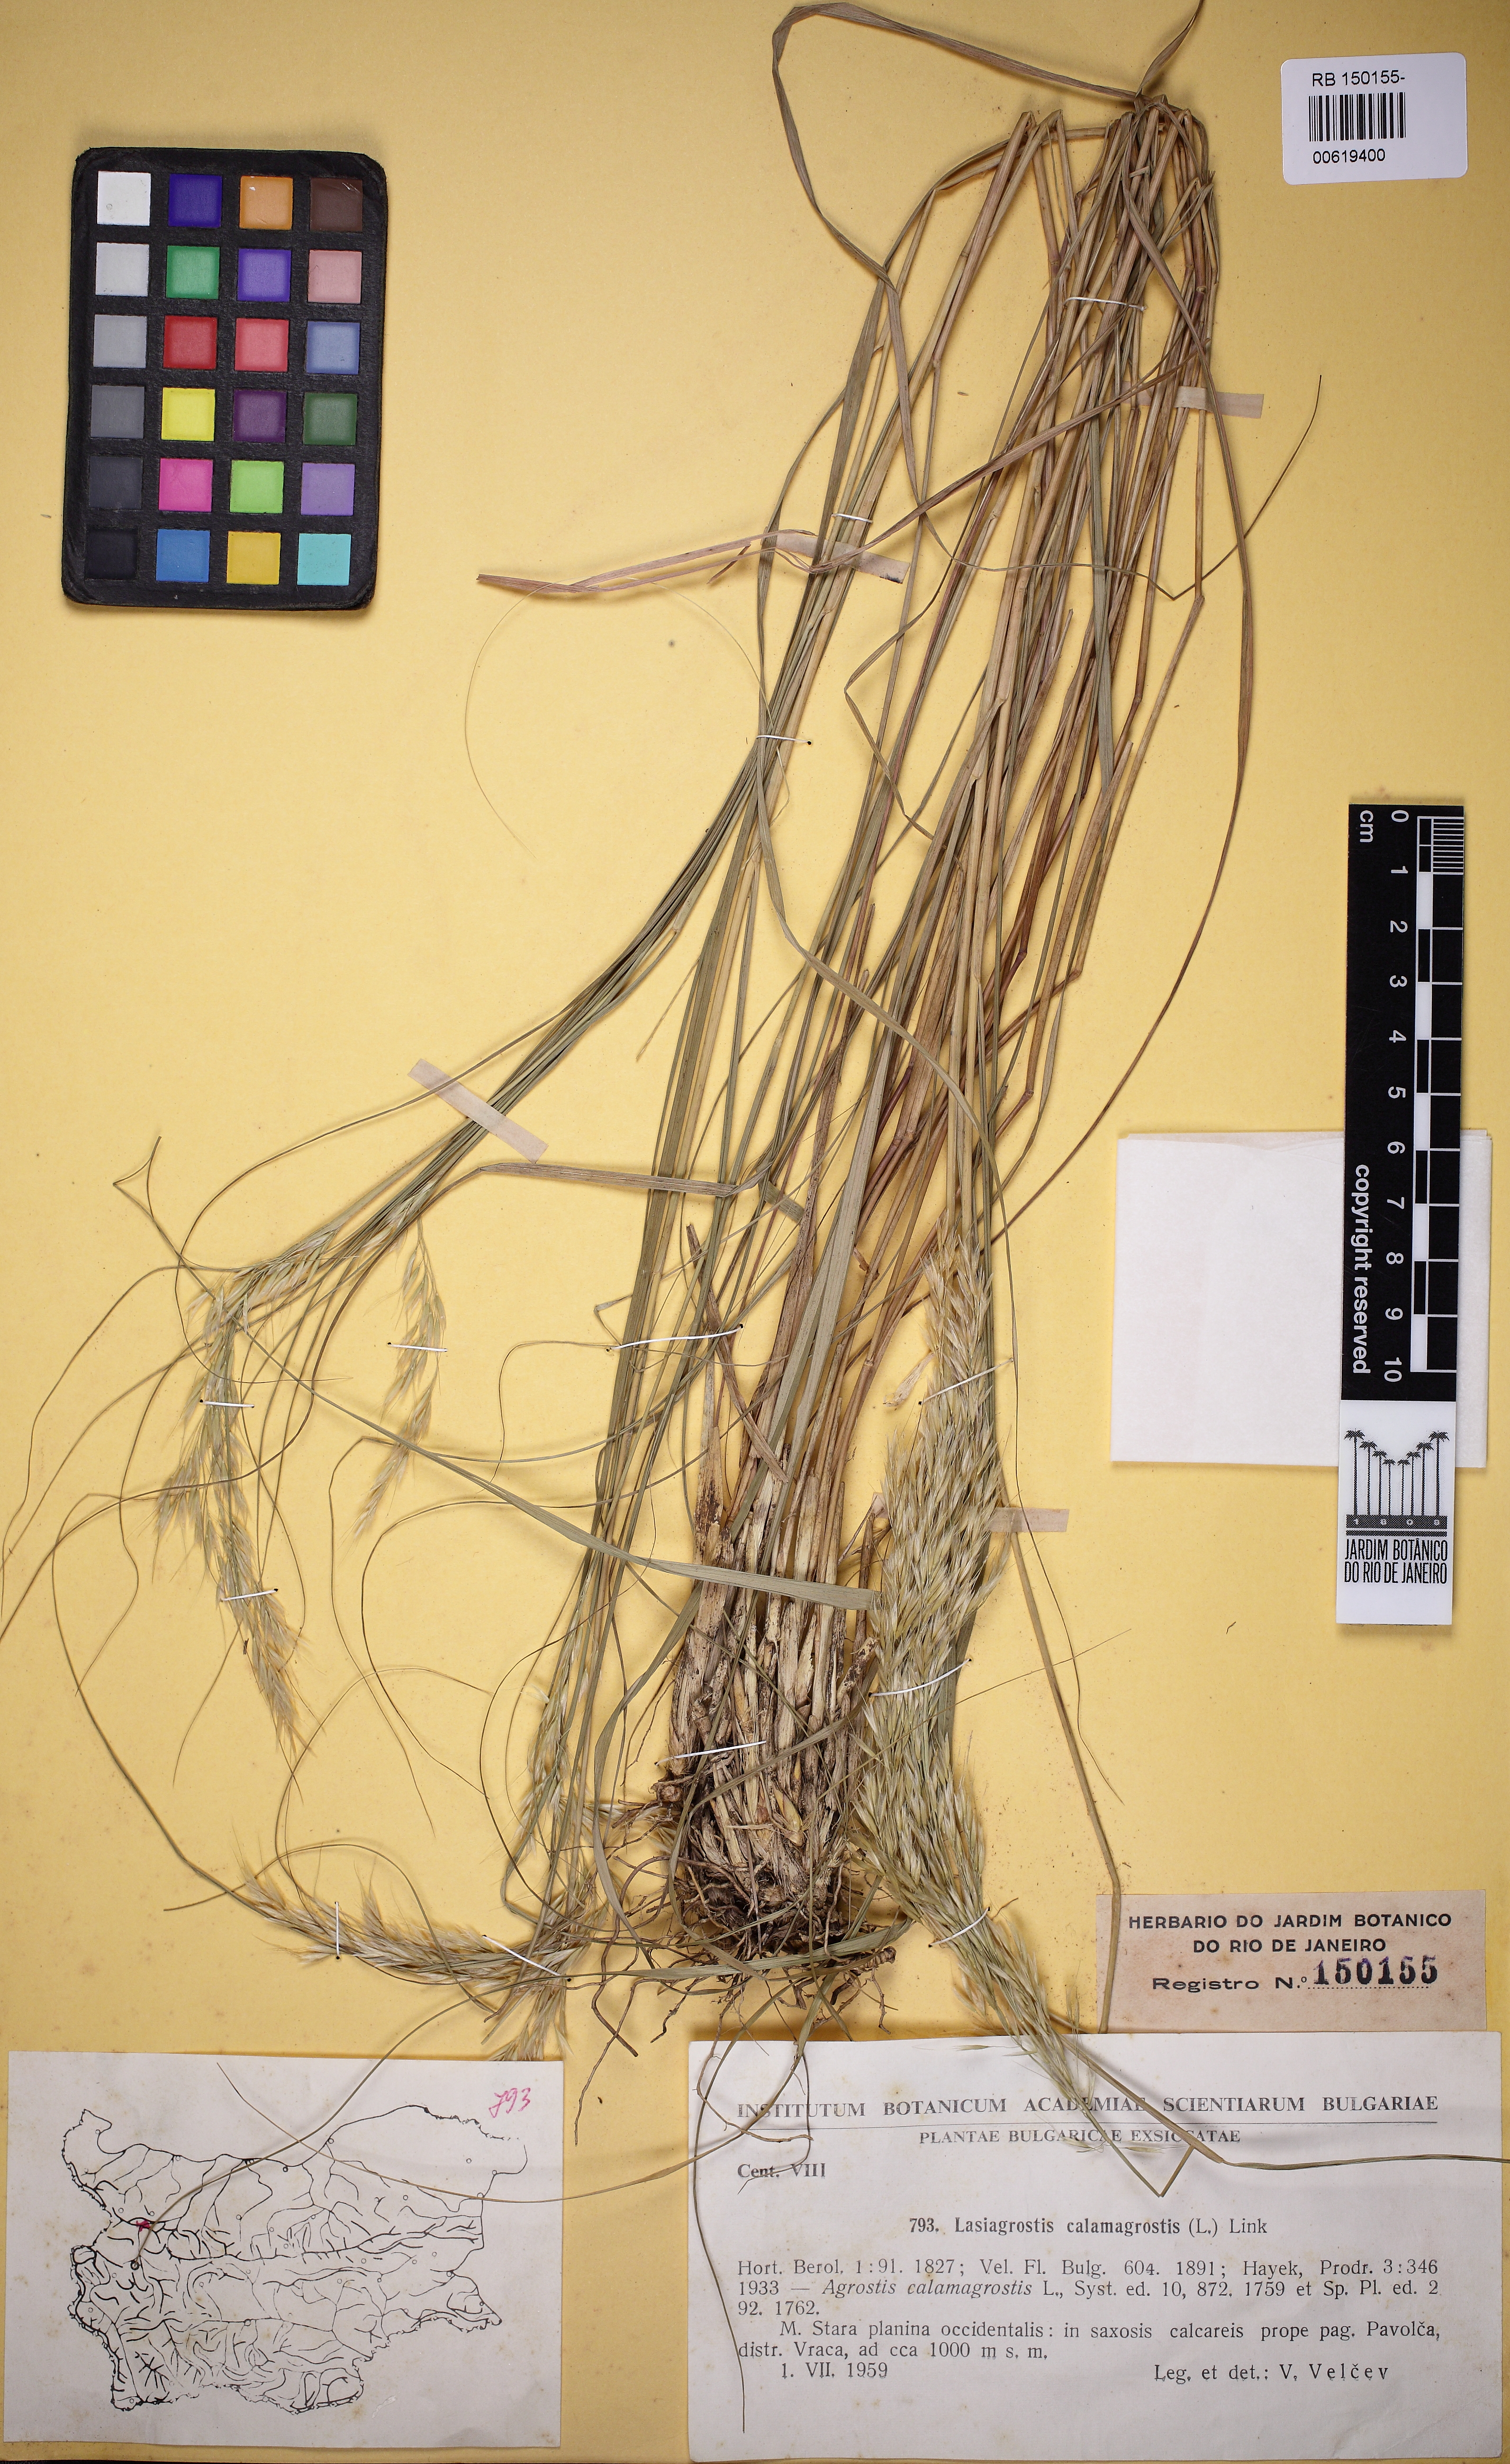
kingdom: Plantae
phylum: Tracheophyta
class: Liliopsida
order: Poales
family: Poaceae
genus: Achnatherum
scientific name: Achnatherum calamagrostis
